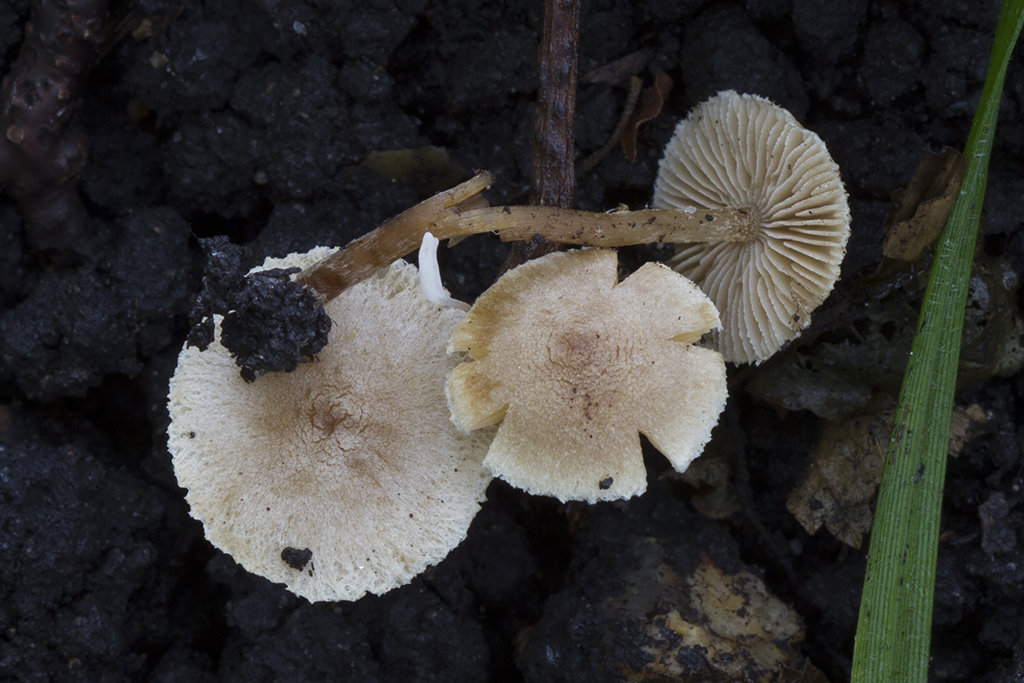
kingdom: Fungi
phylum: Basidiomycota
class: Agaricomycetes
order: Agaricales
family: Hymenogastraceae
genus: Naucoria
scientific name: Naucoria escharioides
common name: lys elle-knaphat
